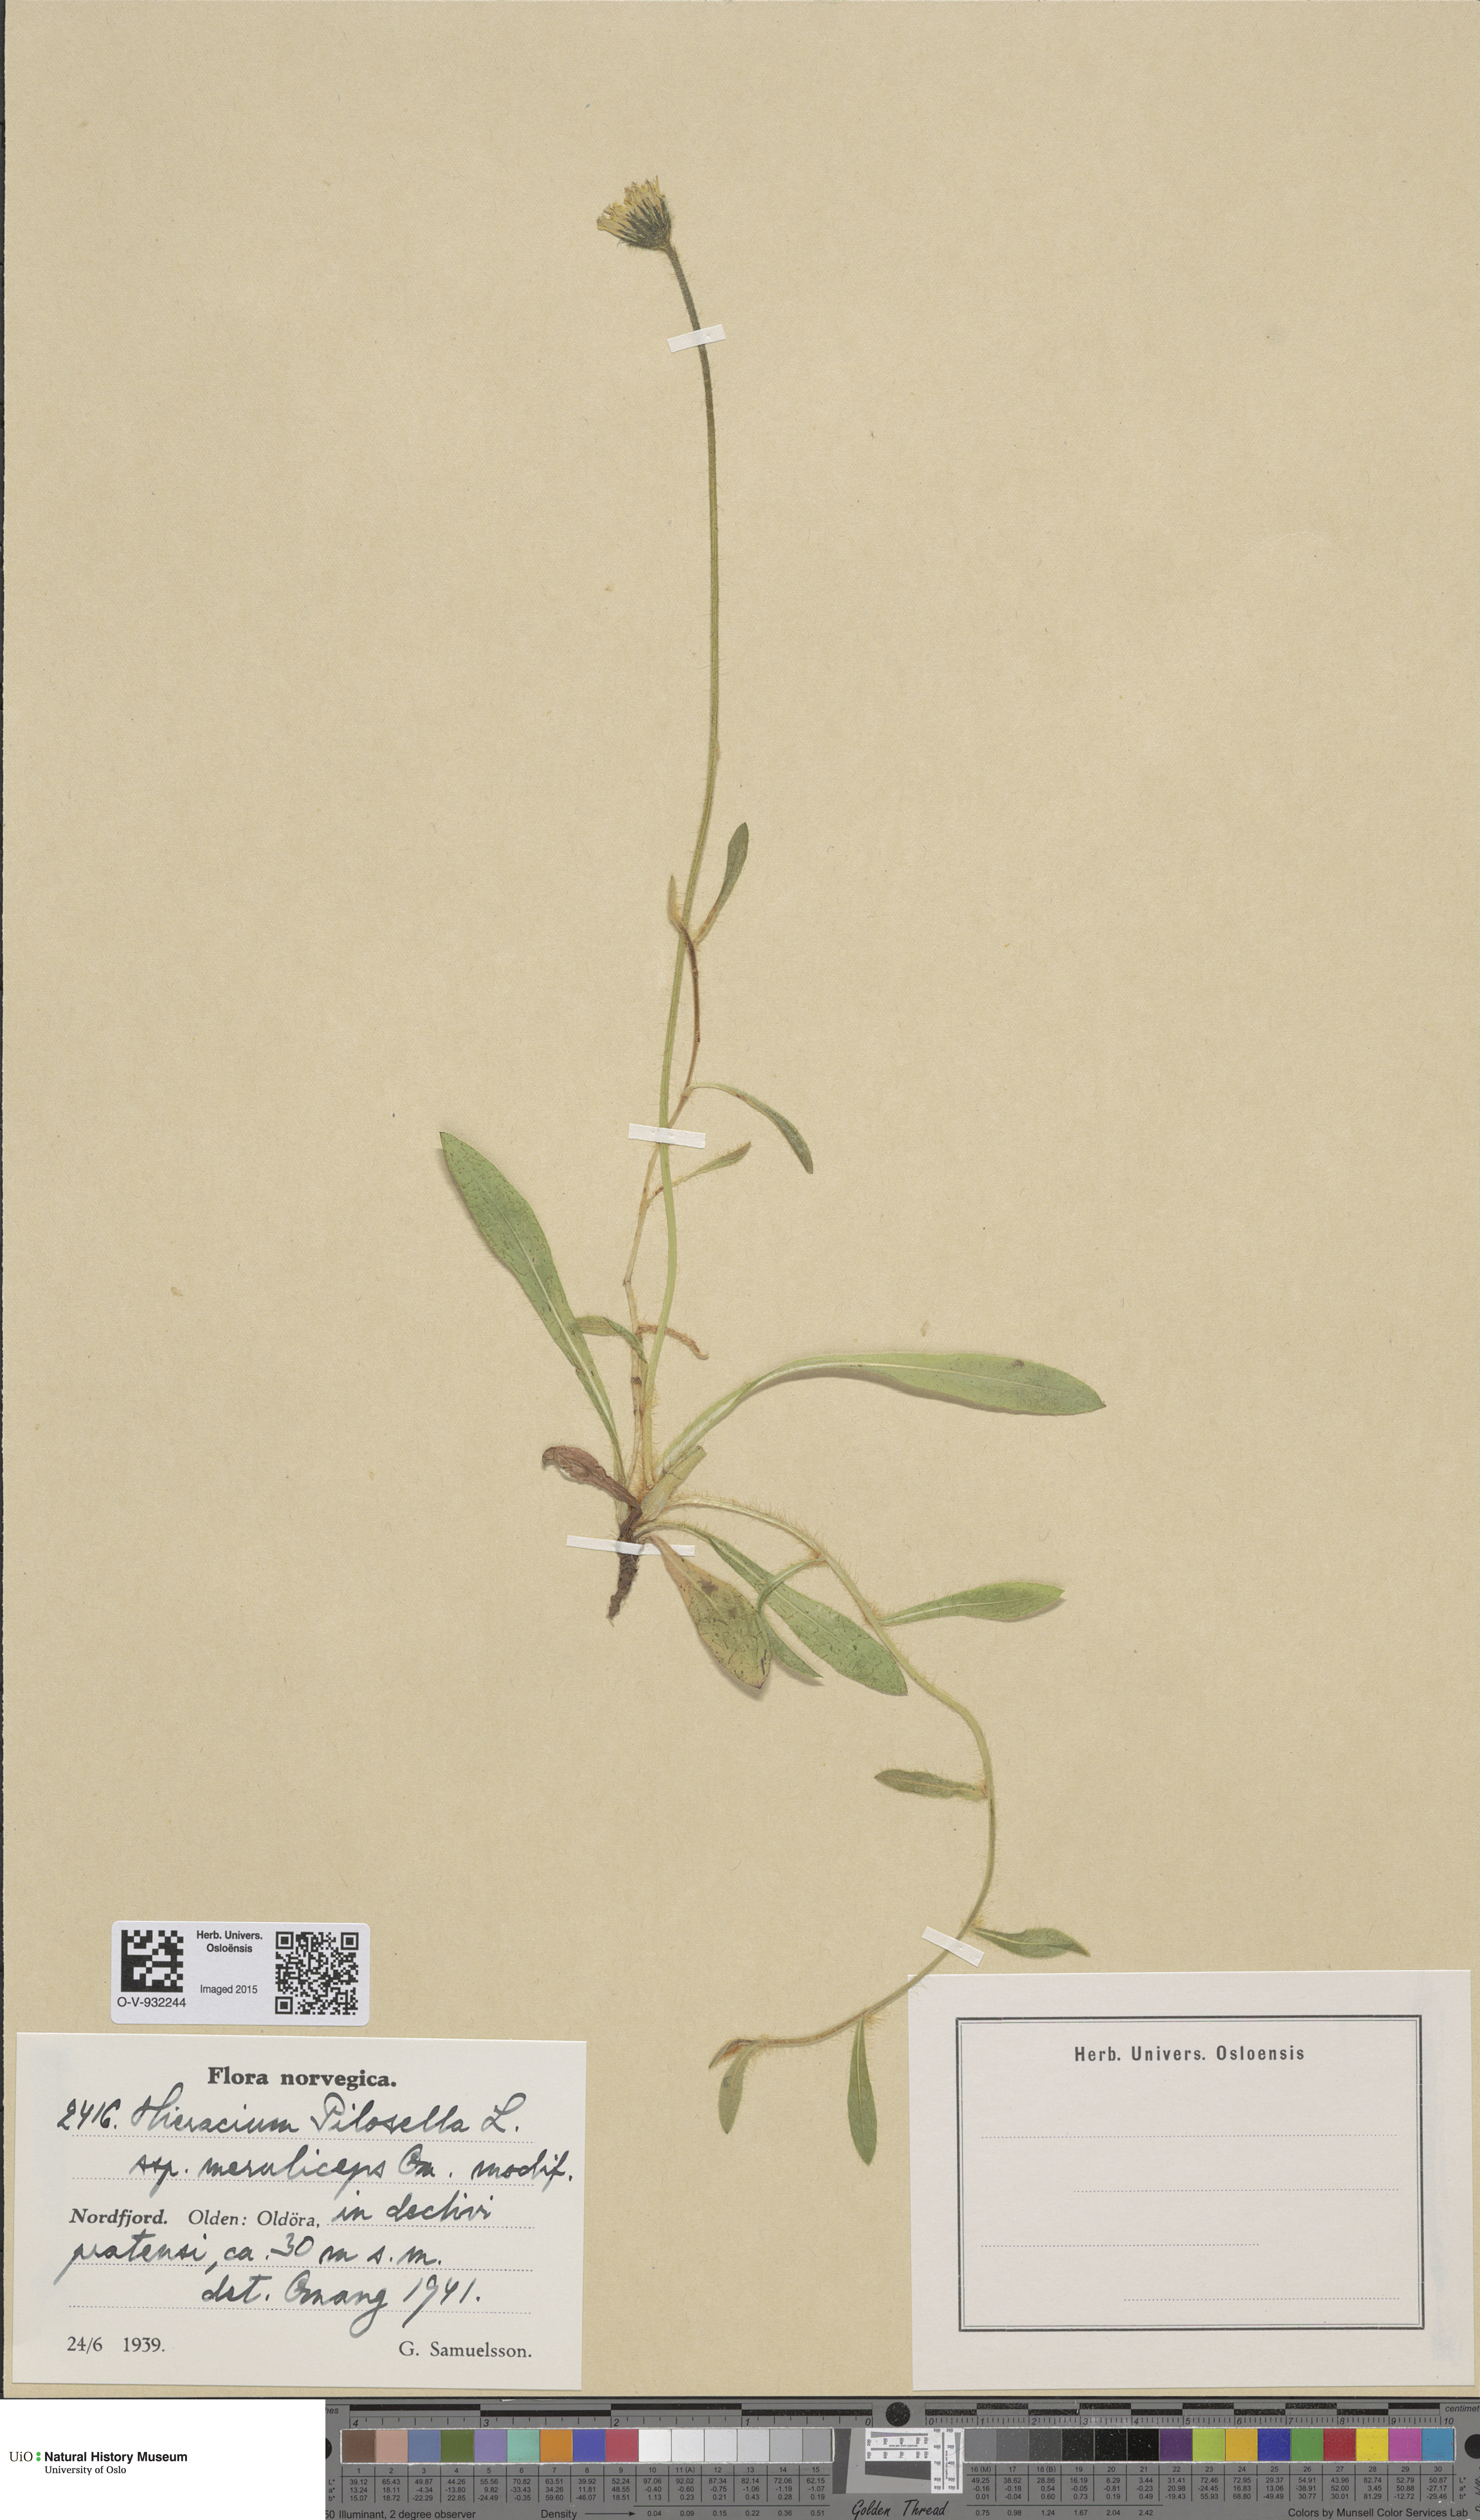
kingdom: Plantae
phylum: Tracheophyta
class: Magnoliopsida
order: Asterales
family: Asteraceae
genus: Pilosella
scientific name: Pilosella officinarum
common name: Mouse-ear hawkweed
